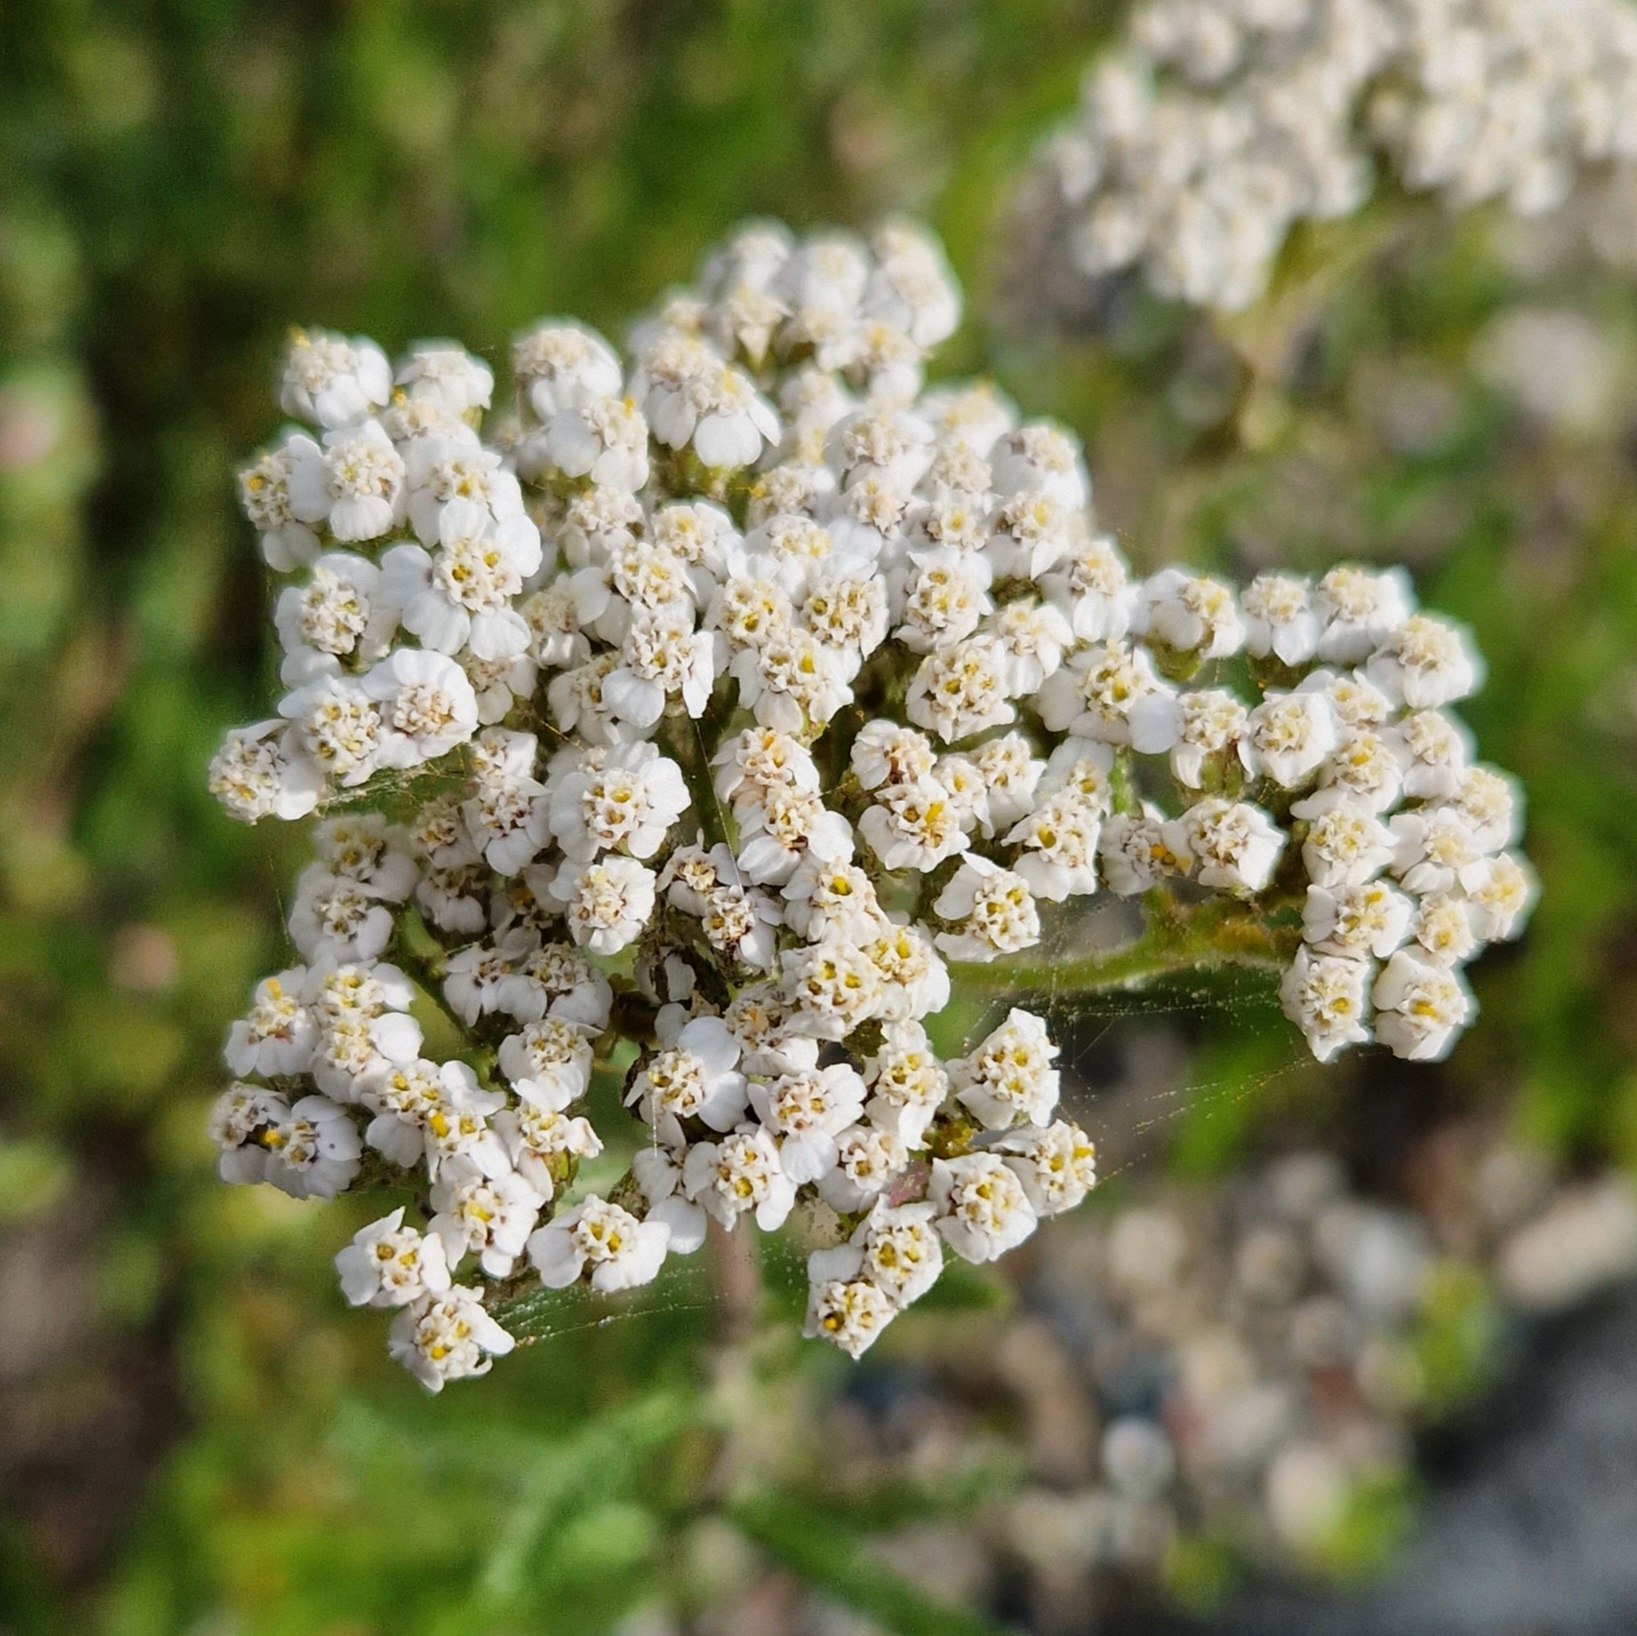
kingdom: Plantae
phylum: Tracheophyta
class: Magnoliopsida
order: Asterales
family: Asteraceae
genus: Achillea
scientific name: Achillea millefolium
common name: Almindelig røllike
